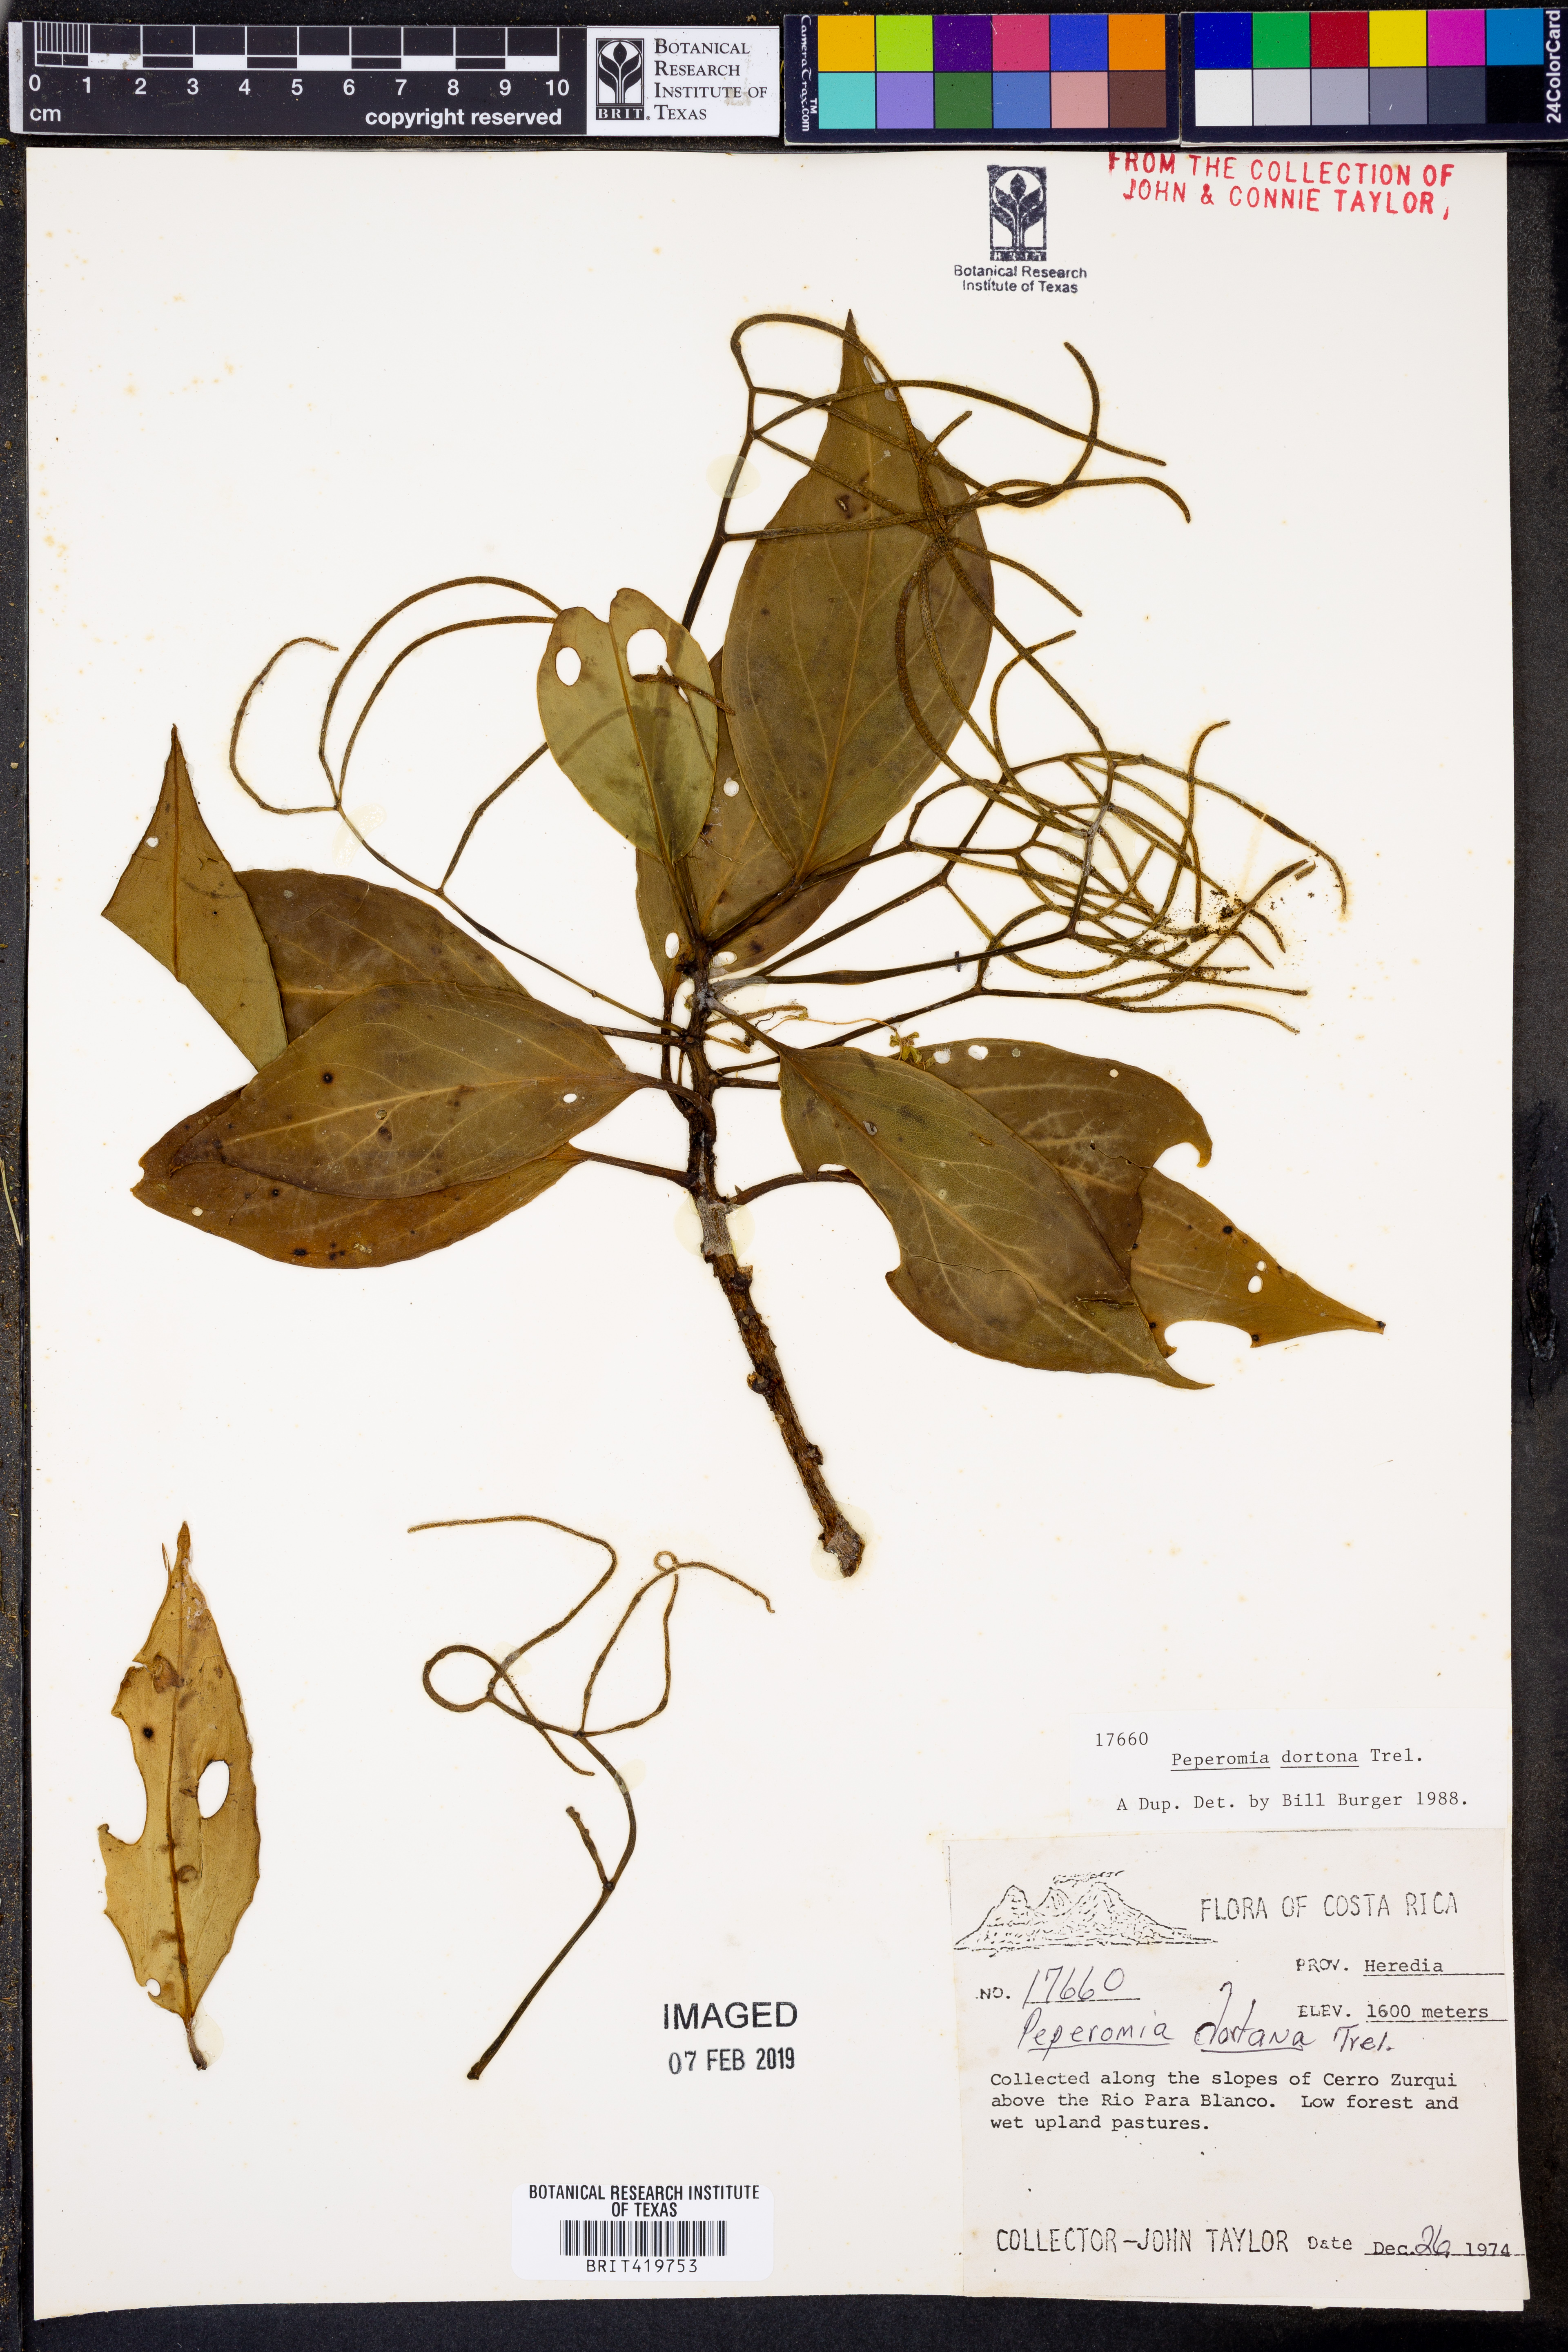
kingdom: Plantae
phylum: Tracheophyta
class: Magnoliopsida
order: Piperales
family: Piperaceae
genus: Peperomia
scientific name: Peperomia dotana
